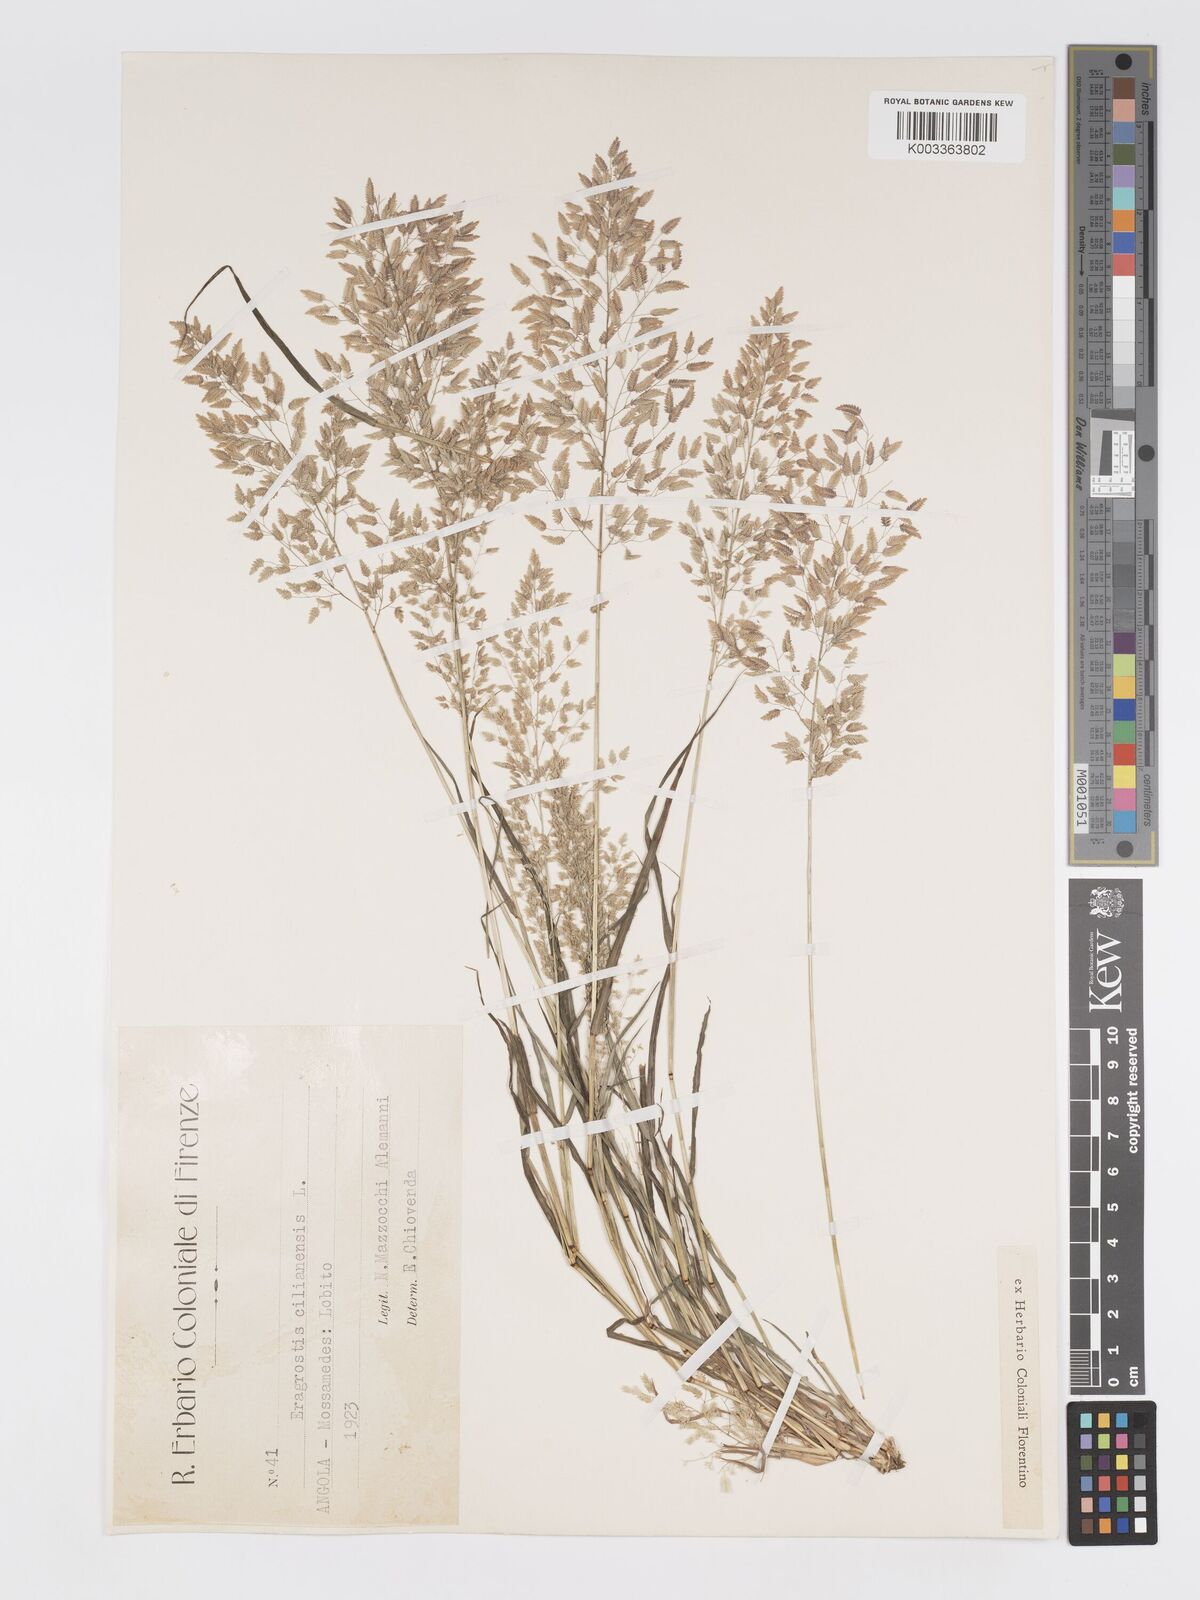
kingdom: Plantae
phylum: Tracheophyta
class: Liliopsida
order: Poales
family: Poaceae
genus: Eragrostis
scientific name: Eragrostis annulata
